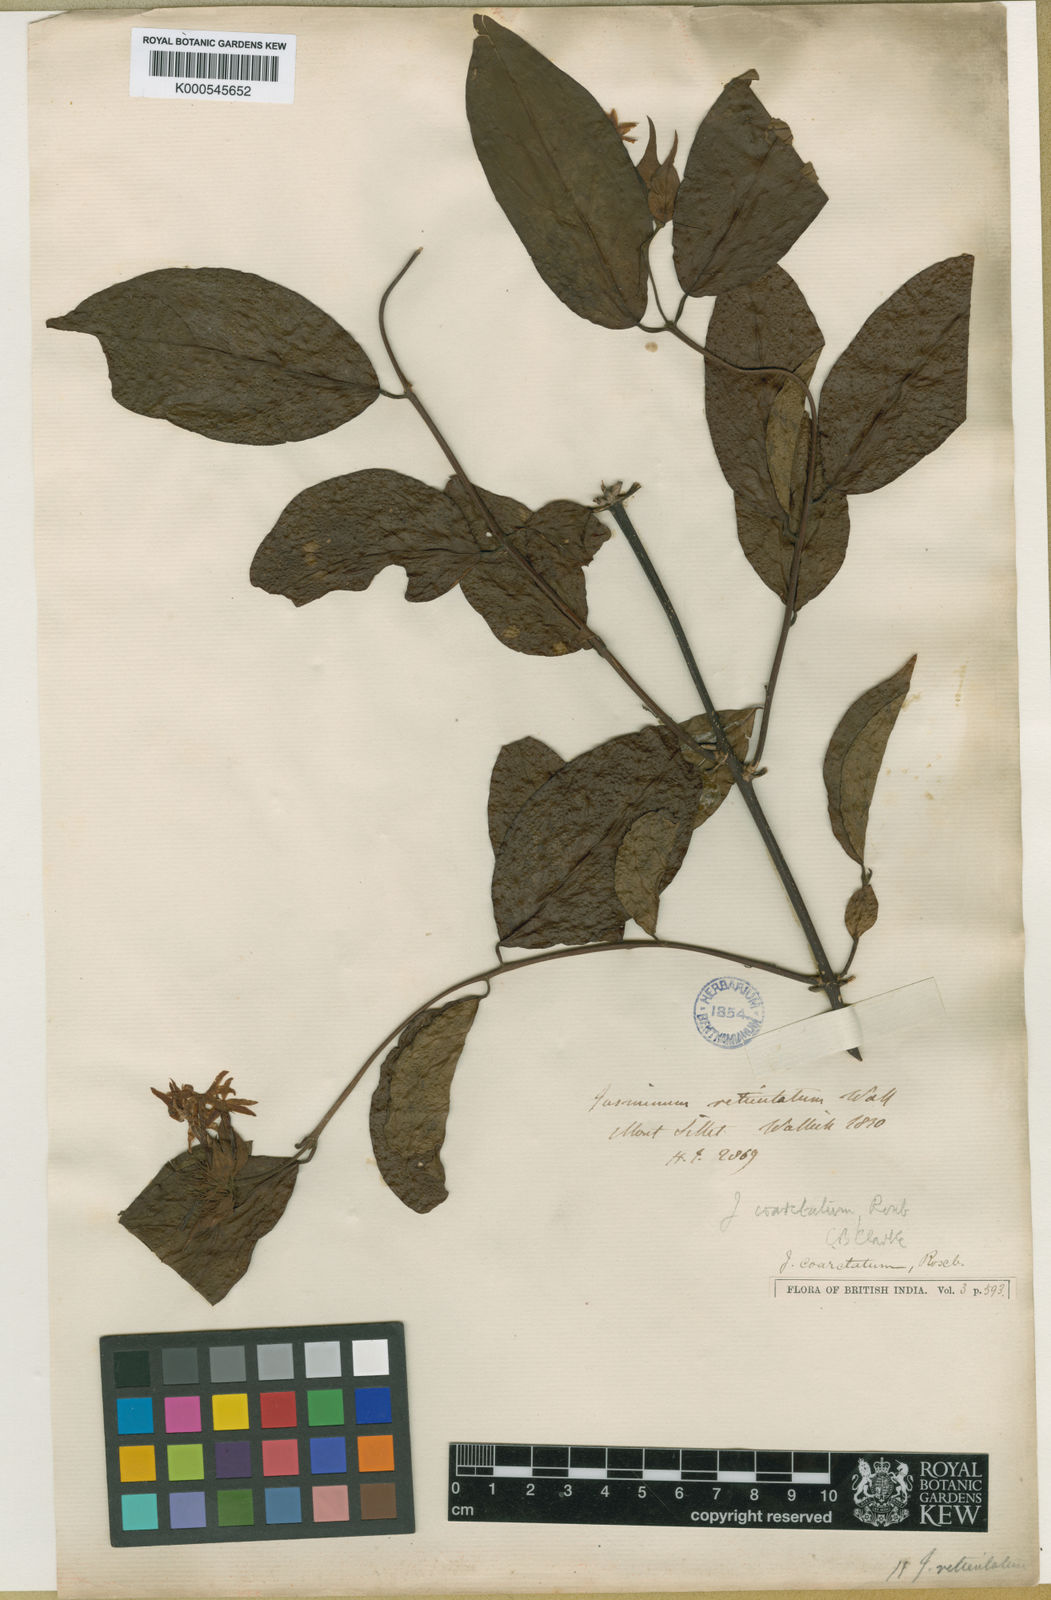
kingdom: Plantae
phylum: Tracheophyta
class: Magnoliopsida
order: Lamiales
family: Oleaceae
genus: Jasminum
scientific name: Jasminum coarctatum
